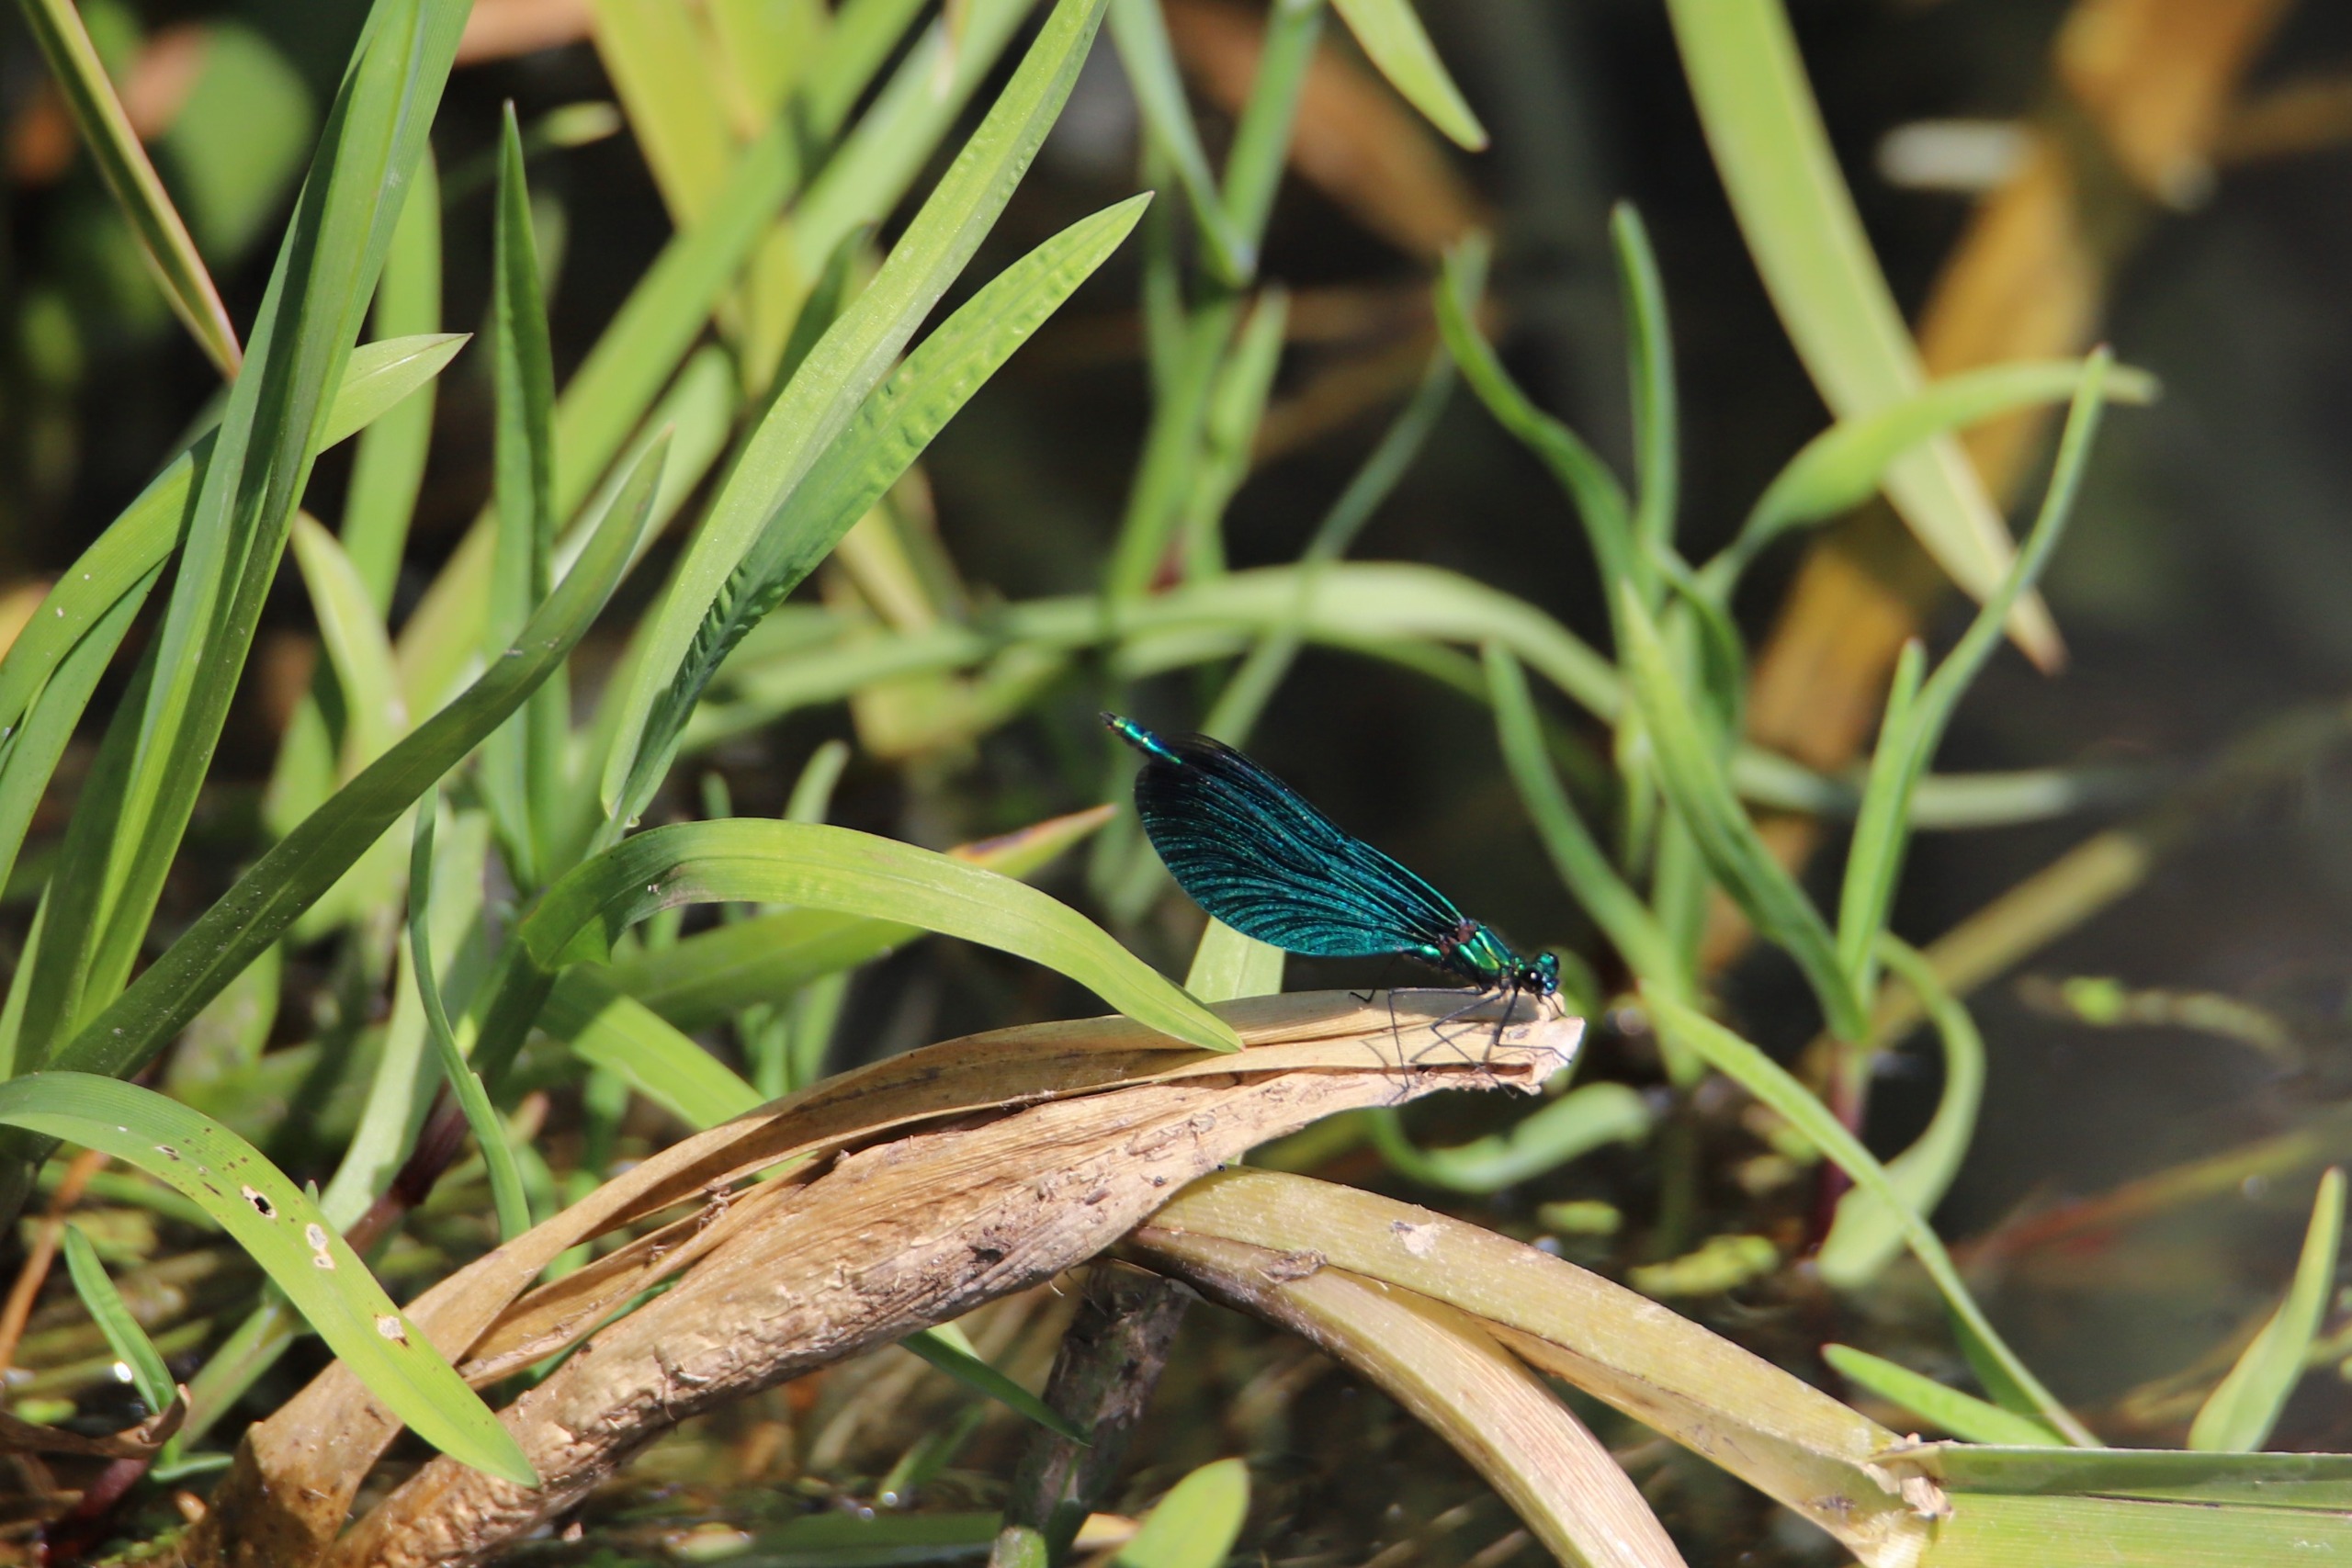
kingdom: Animalia
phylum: Arthropoda
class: Insecta
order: Odonata
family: Calopterygidae
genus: Calopteryx
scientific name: Calopteryx virgo
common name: Blåvinget pragtvandnymfe
